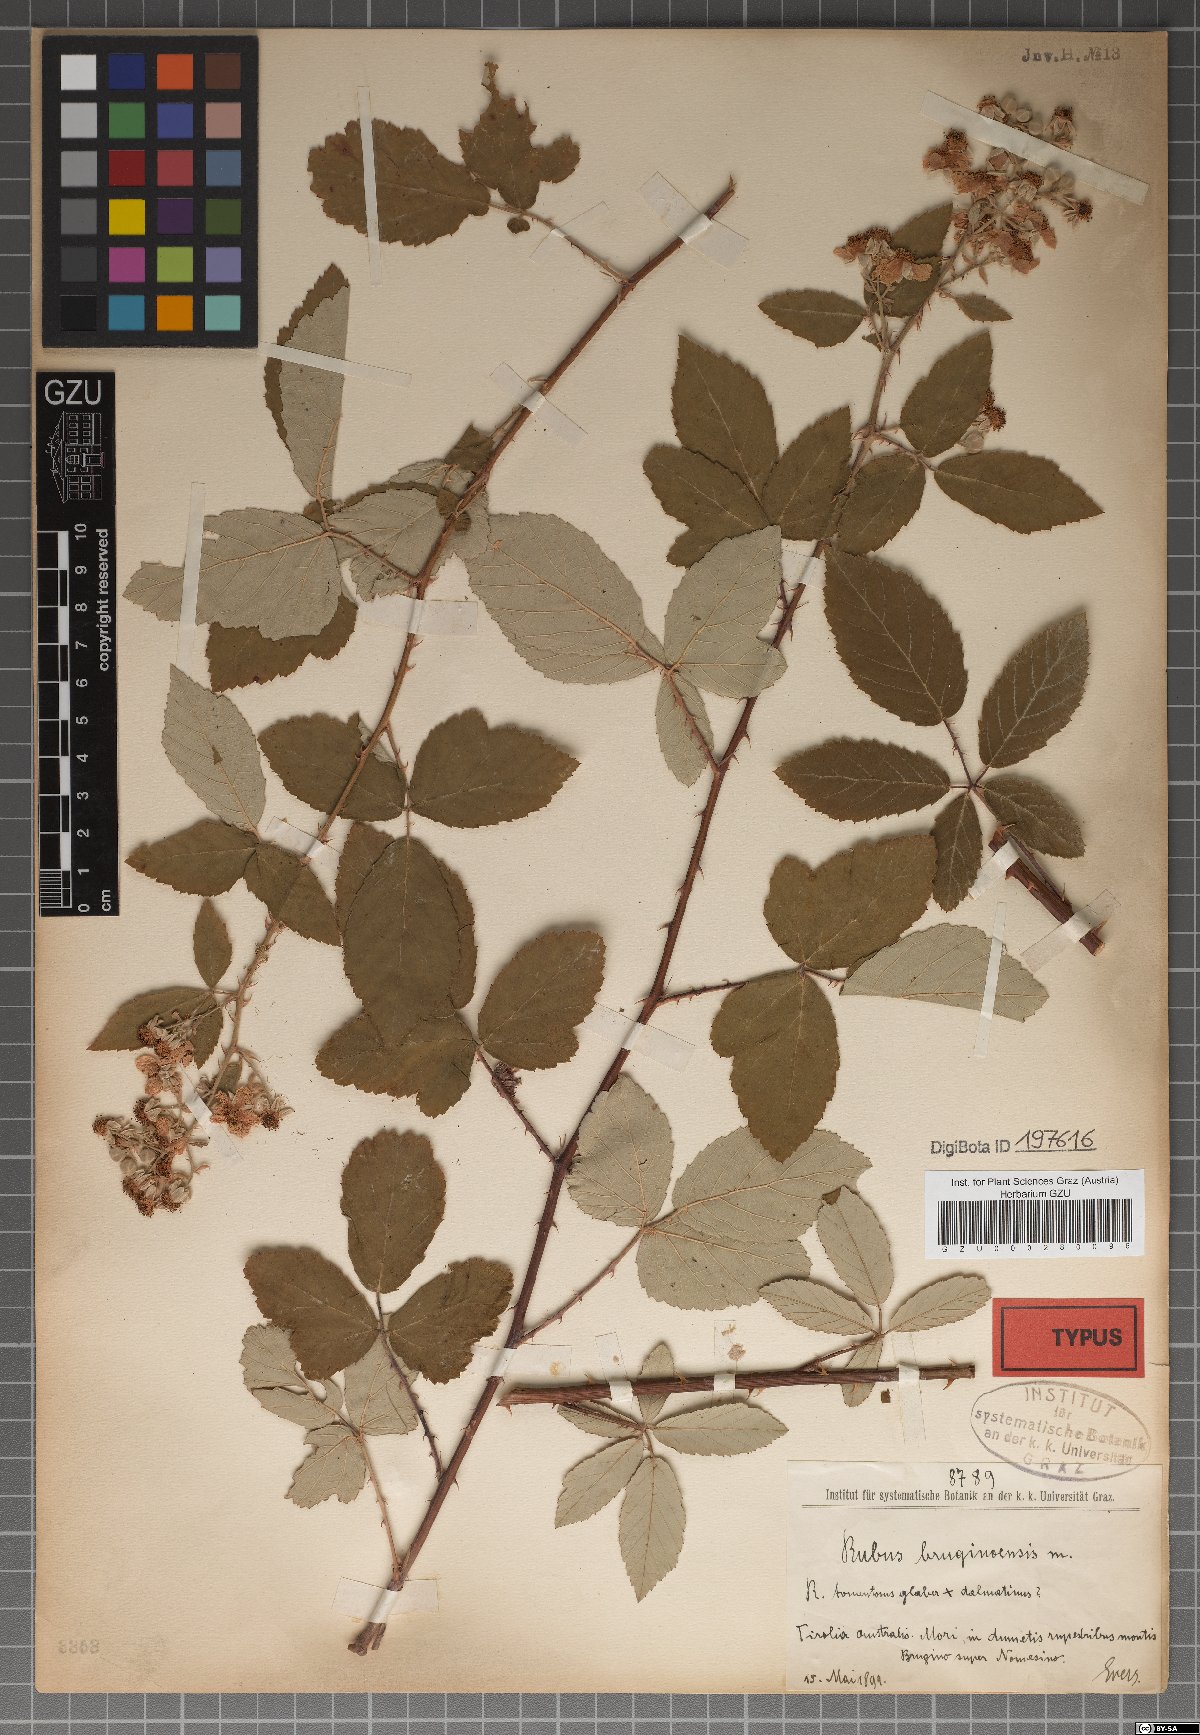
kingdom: Plantae
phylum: Tracheophyta
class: Magnoliopsida
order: Rosales
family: Rosaceae
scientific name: Rosaceae
